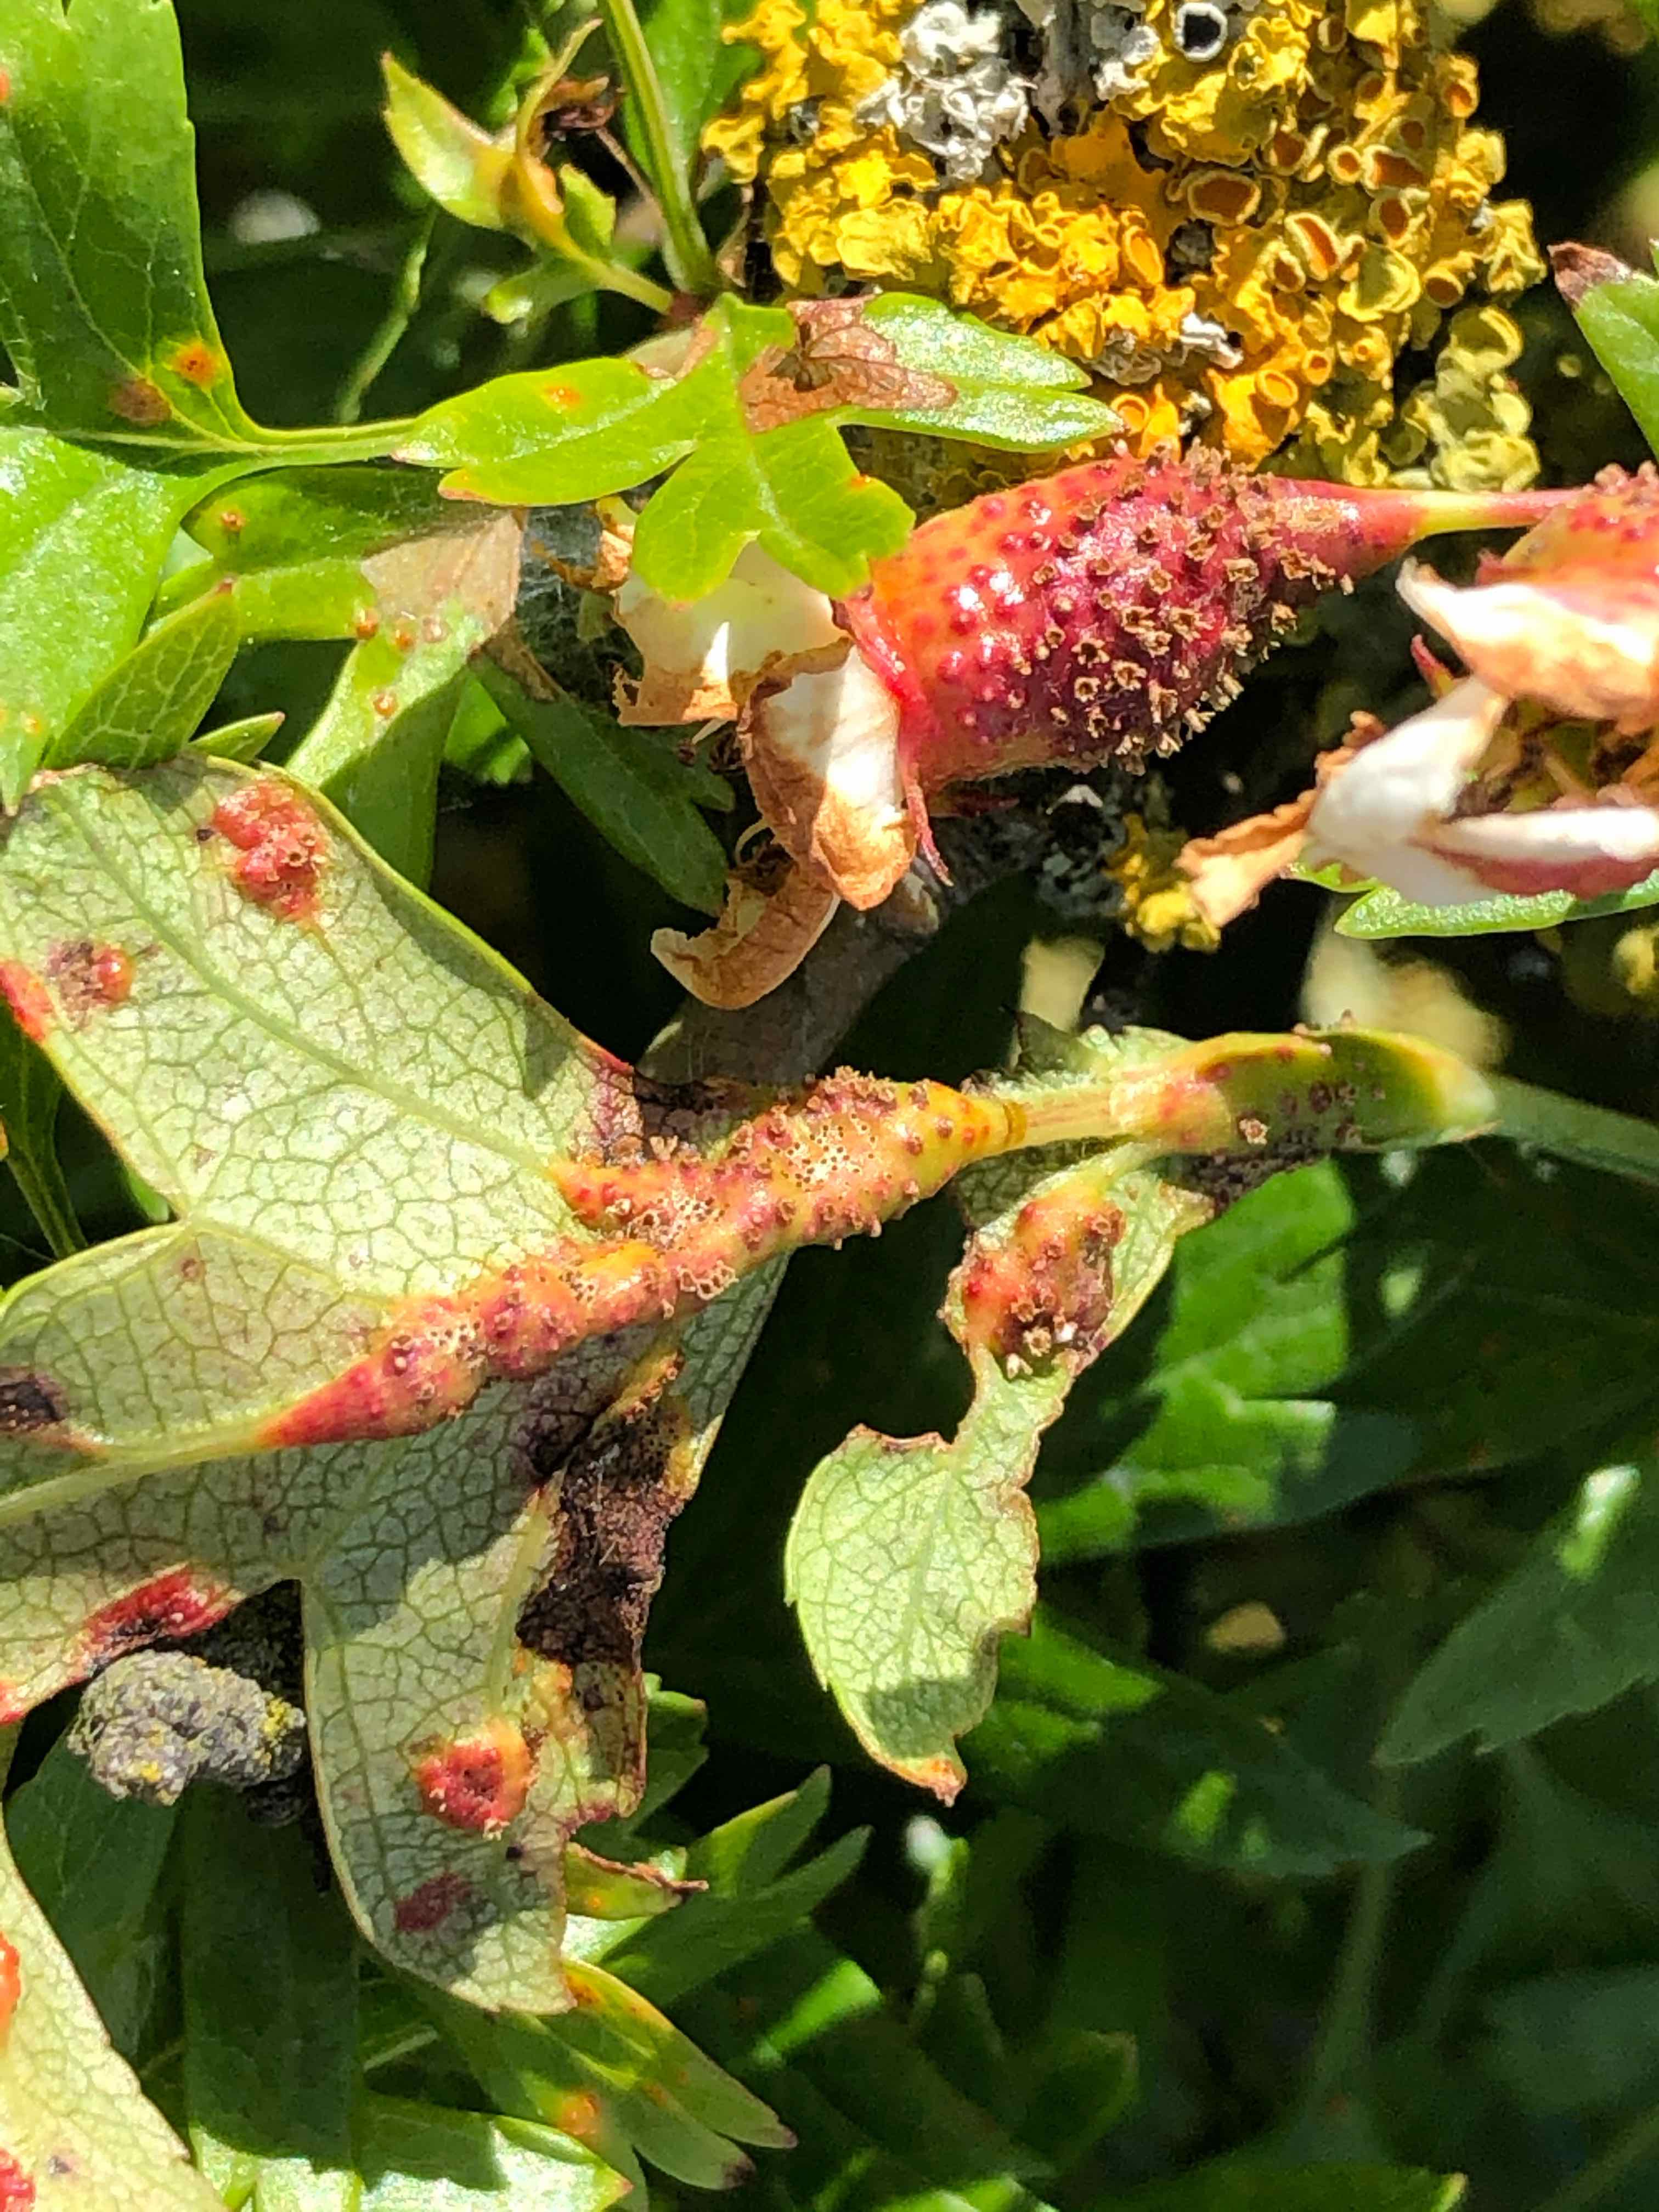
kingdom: Fungi
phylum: Basidiomycota
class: Pucciniomycetes
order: Pucciniales
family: Gymnosporangiaceae
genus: Gymnosporangium
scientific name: Gymnosporangium clavariiforme
